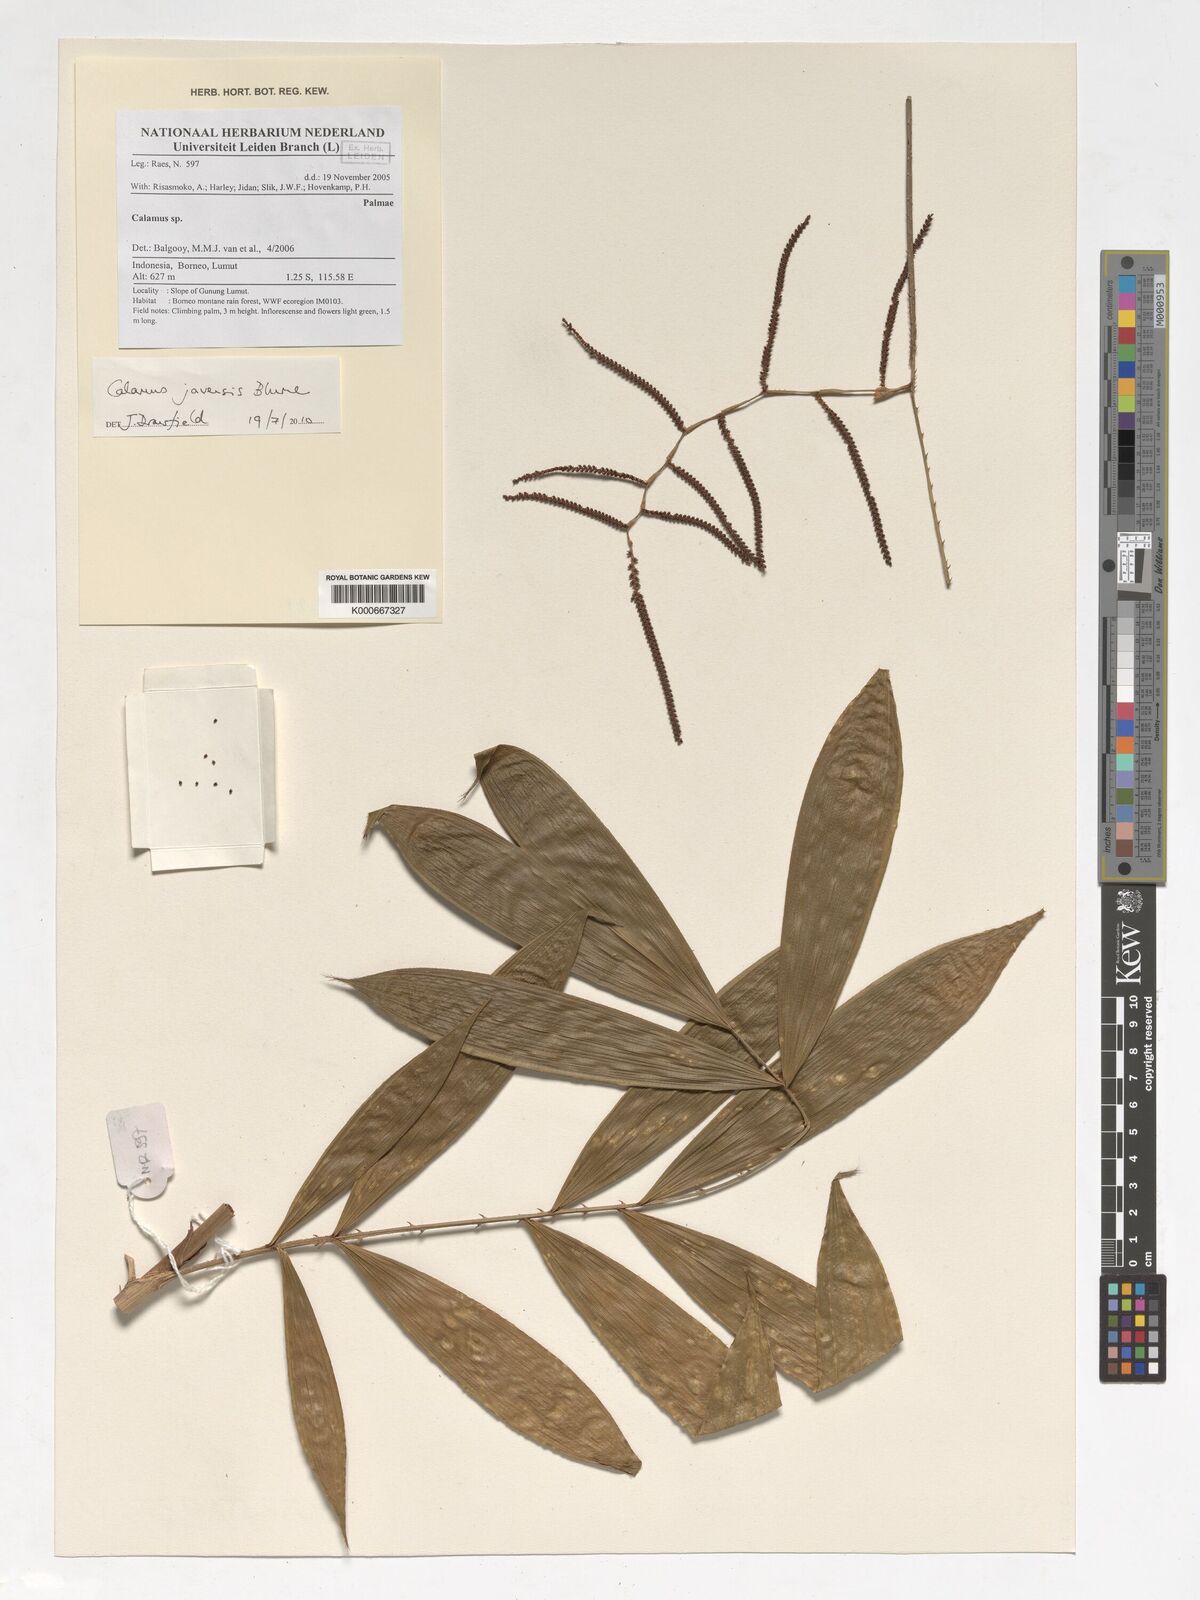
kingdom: Plantae
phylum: Tracheophyta
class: Liliopsida
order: Arecales
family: Arecaceae
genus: Calamus
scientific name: Calamus javensis
